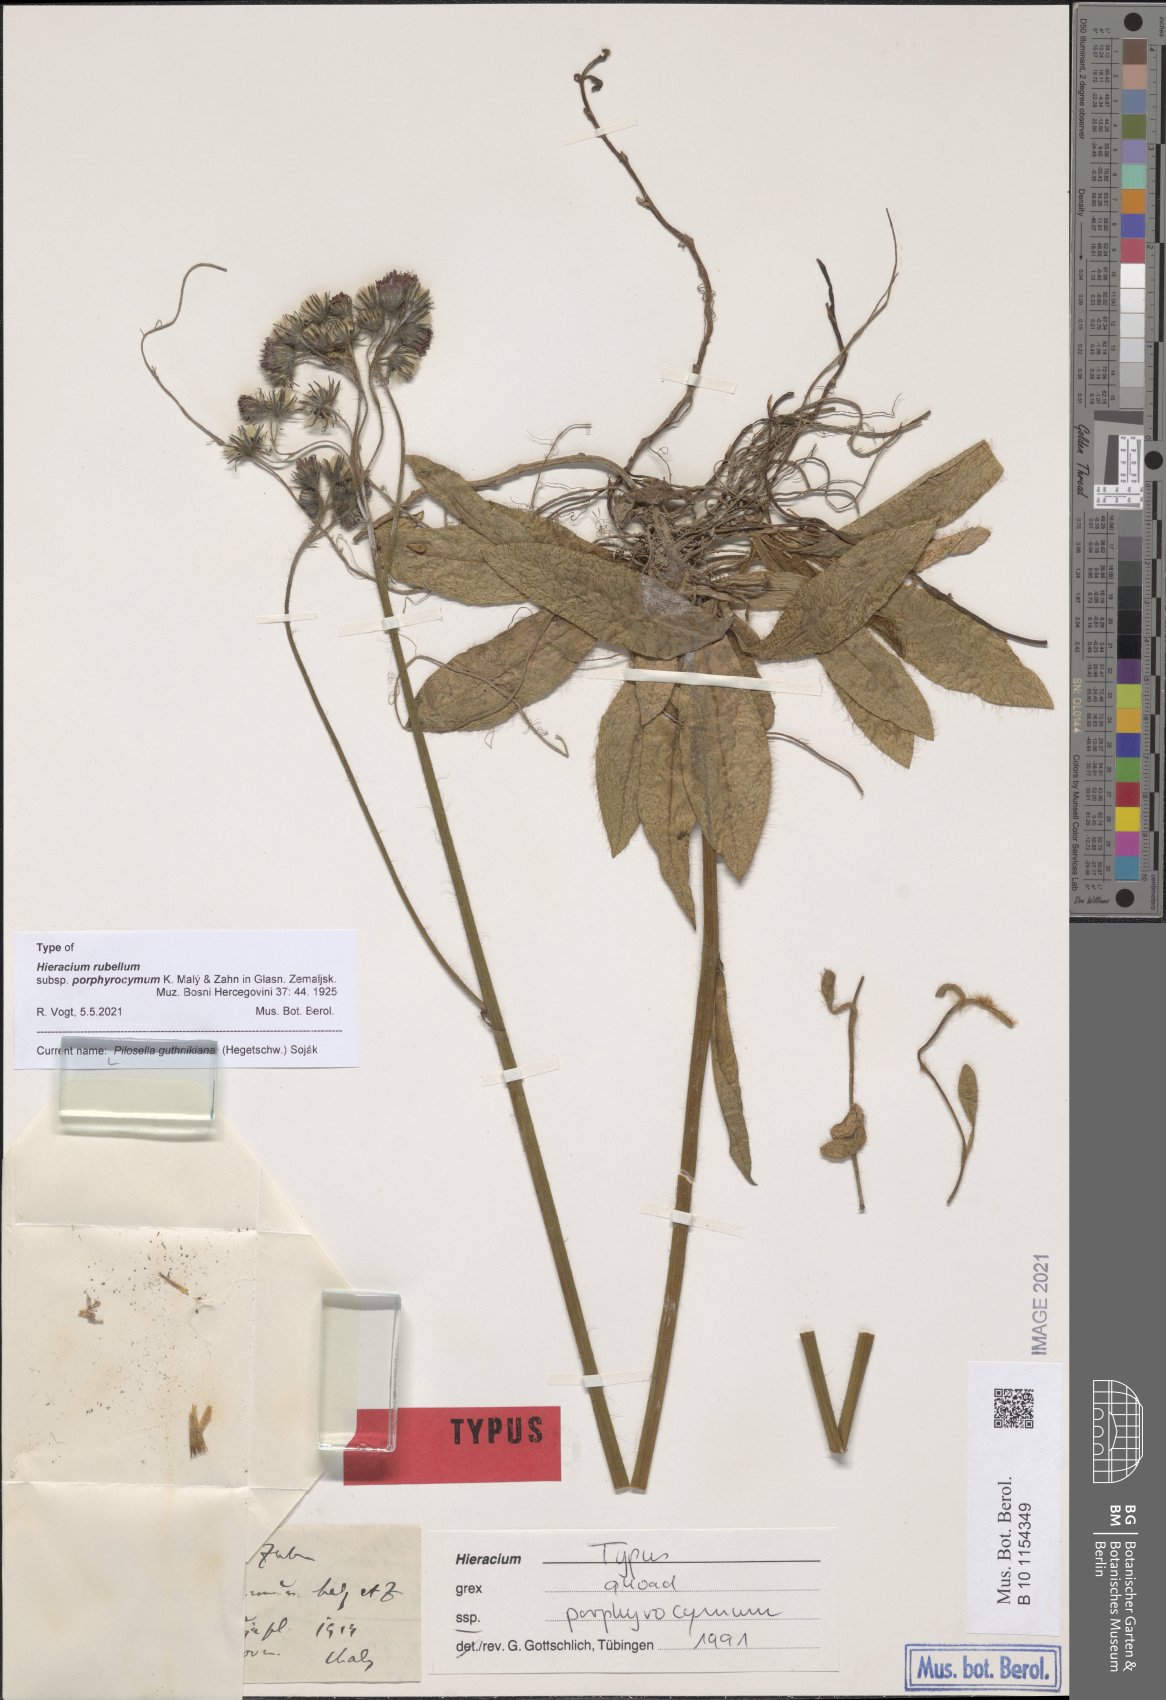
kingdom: Plantae
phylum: Tracheophyta
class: Magnoliopsida
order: Asterales
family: Asteraceae
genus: Pilosella
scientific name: Pilosella guthnikiana
